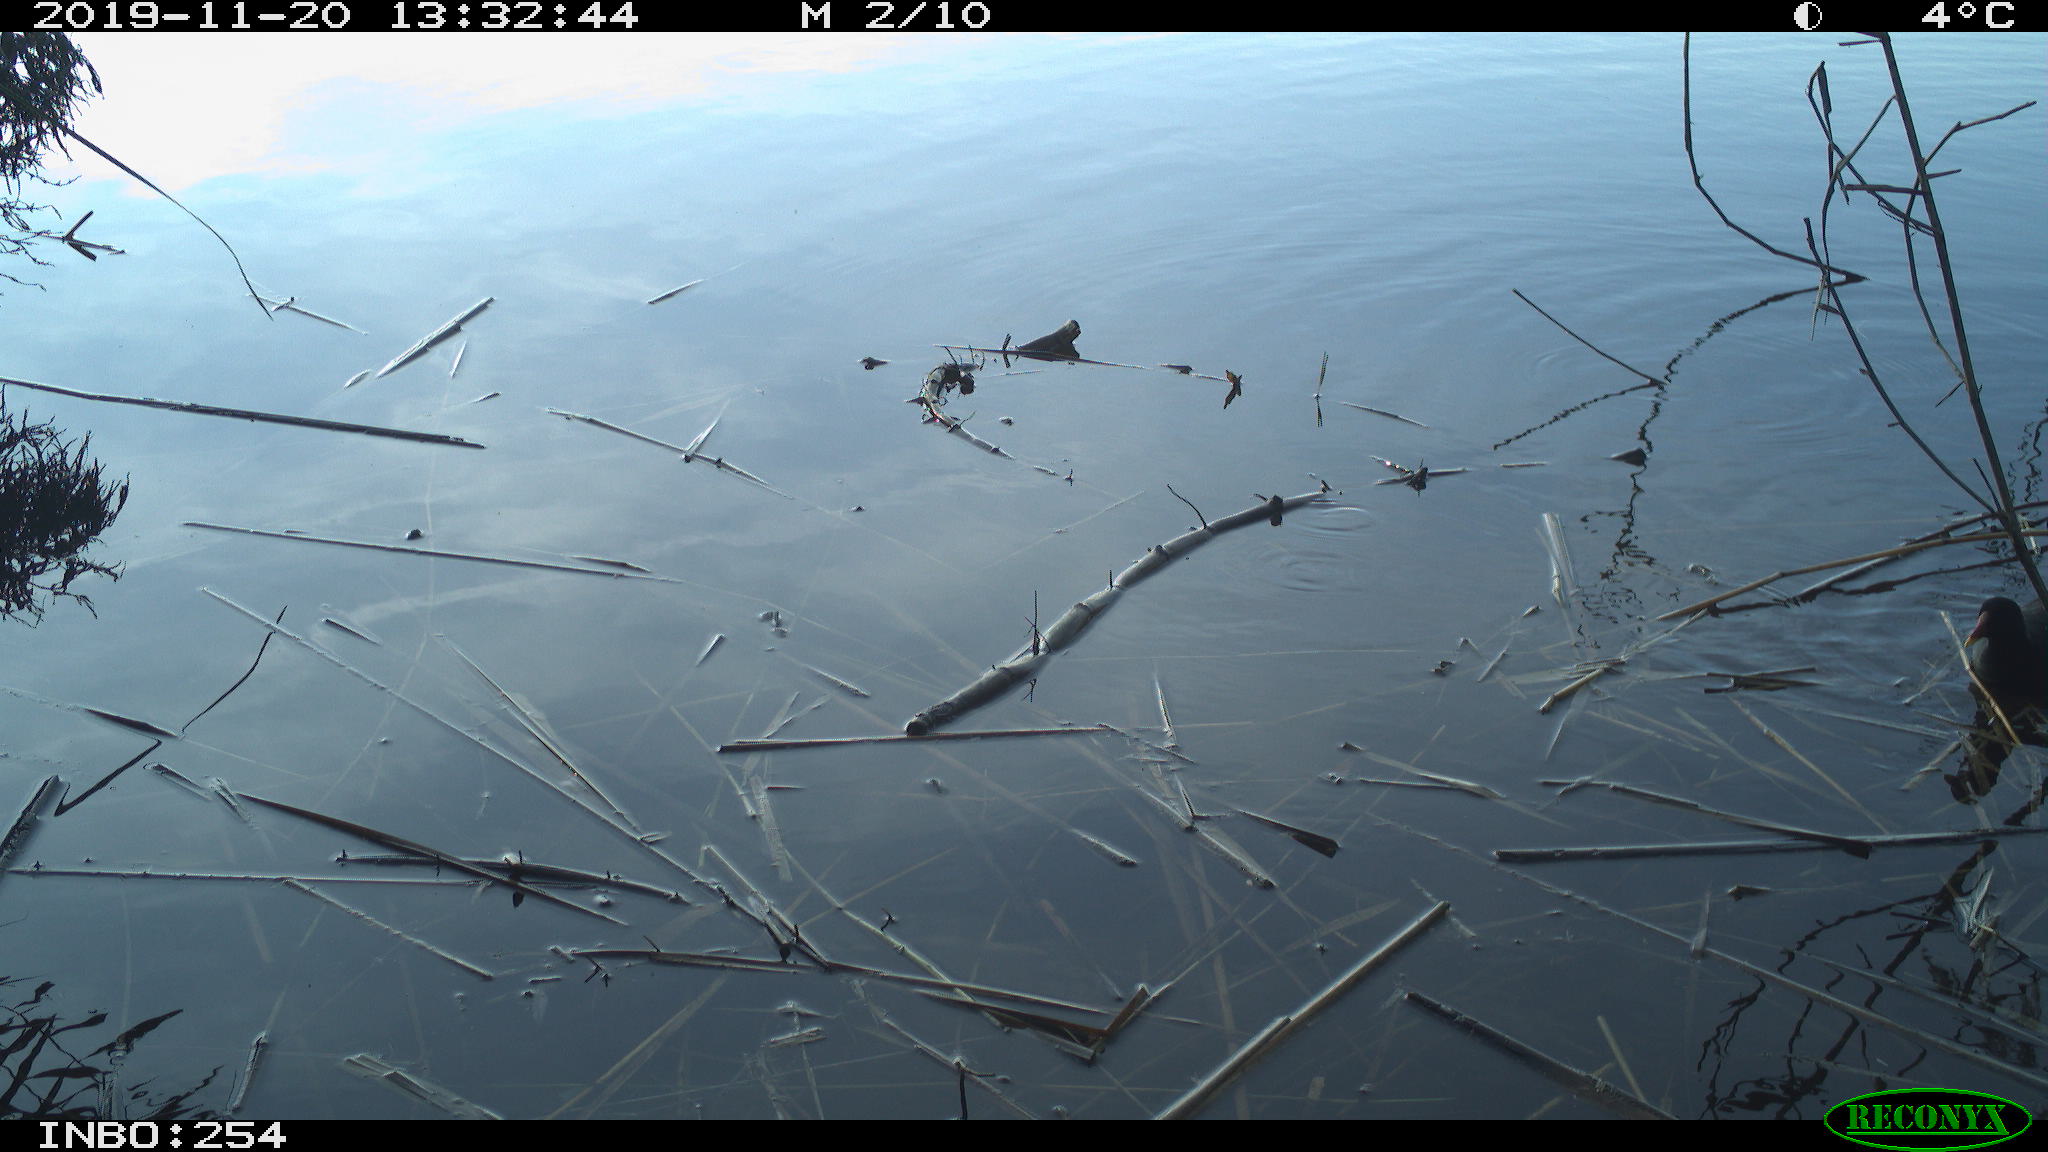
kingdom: Animalia
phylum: Chordata
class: Aves
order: Gruiformes
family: Rallidae
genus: Gallinula
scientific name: Gallinula chloropus
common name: Common moorhen
